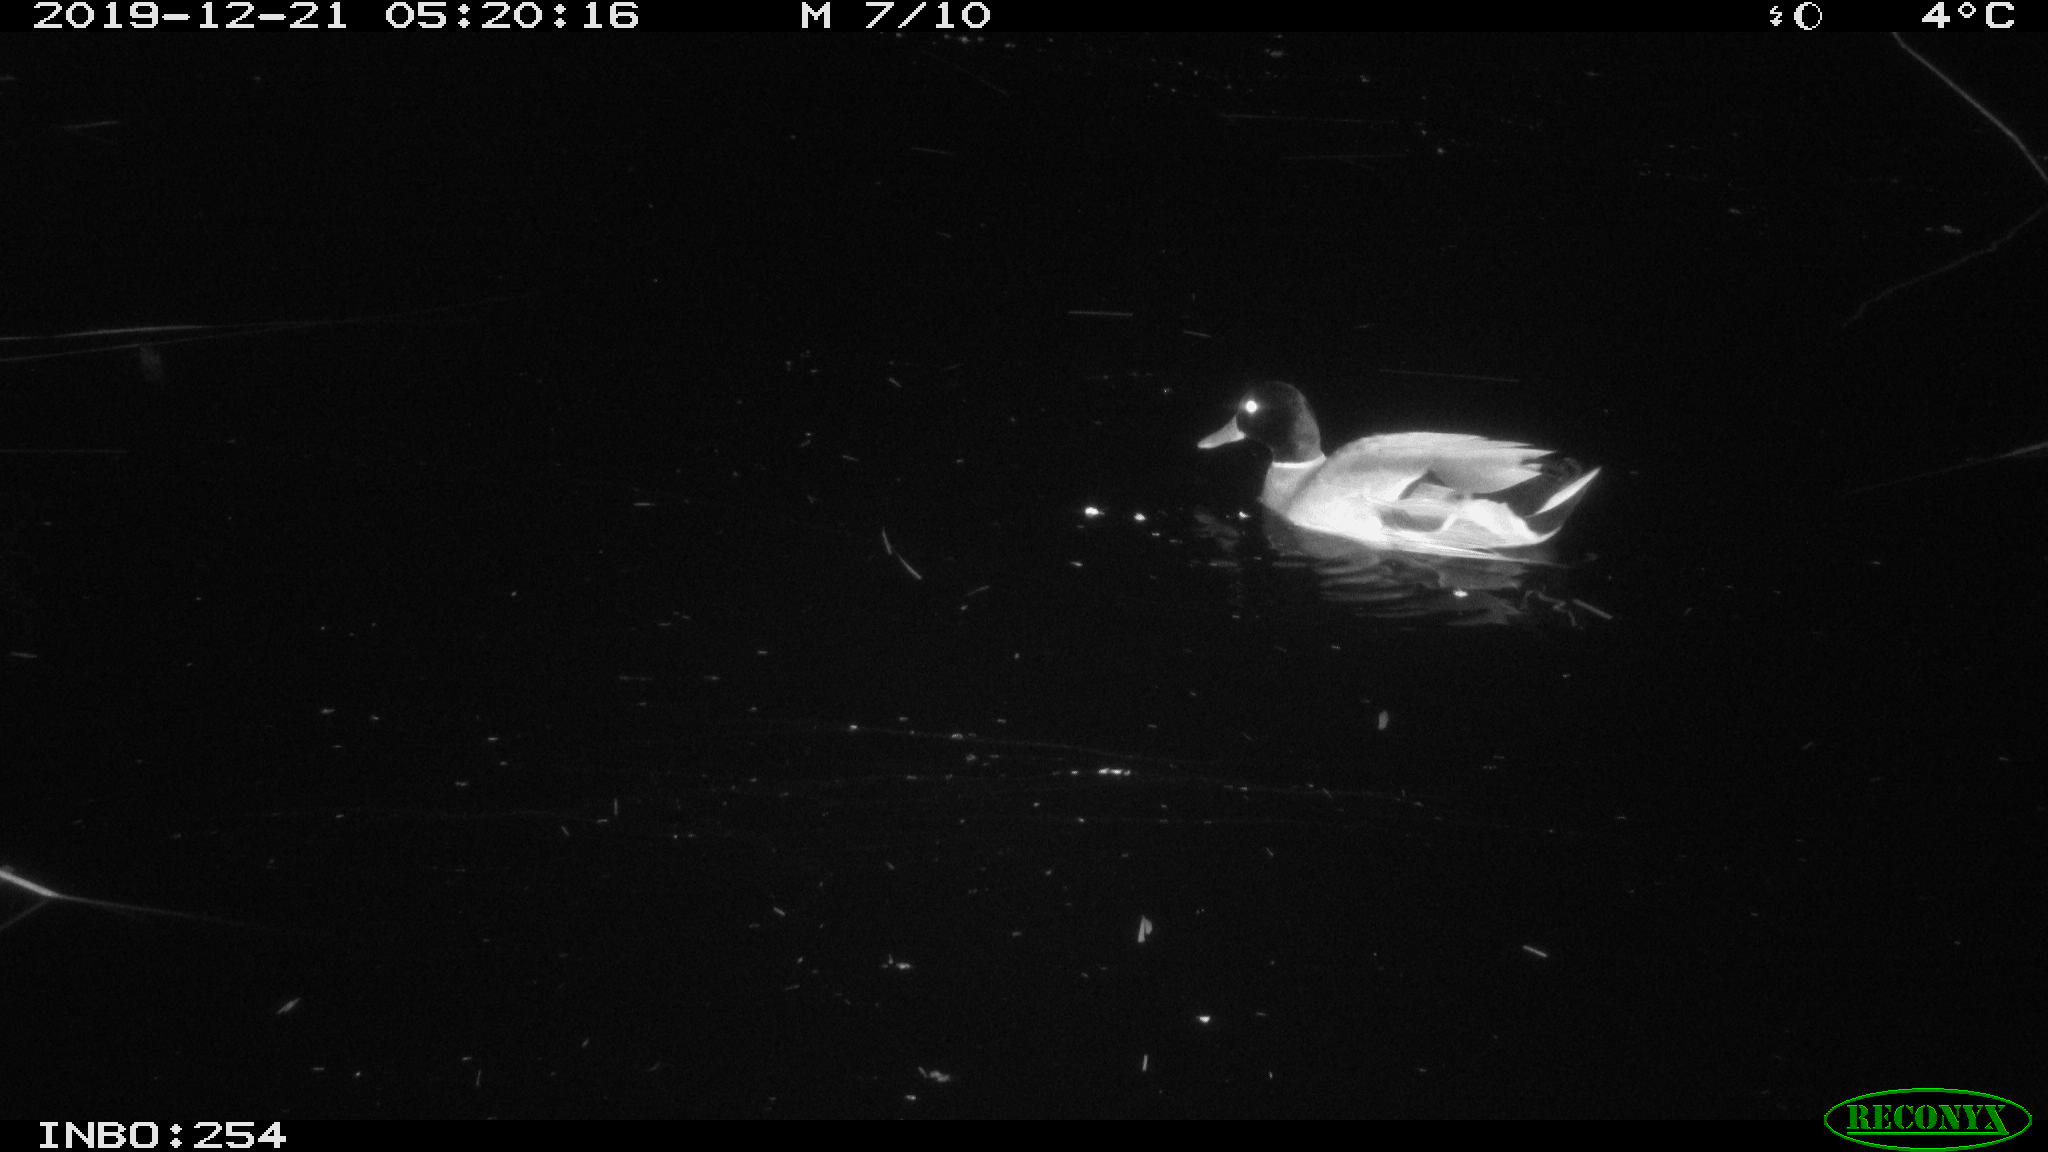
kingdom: Animalia
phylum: Chordata
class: Aves
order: Anseriformes
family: Anatidae
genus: Anas
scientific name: Anas platyrhynchos
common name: Mallard
